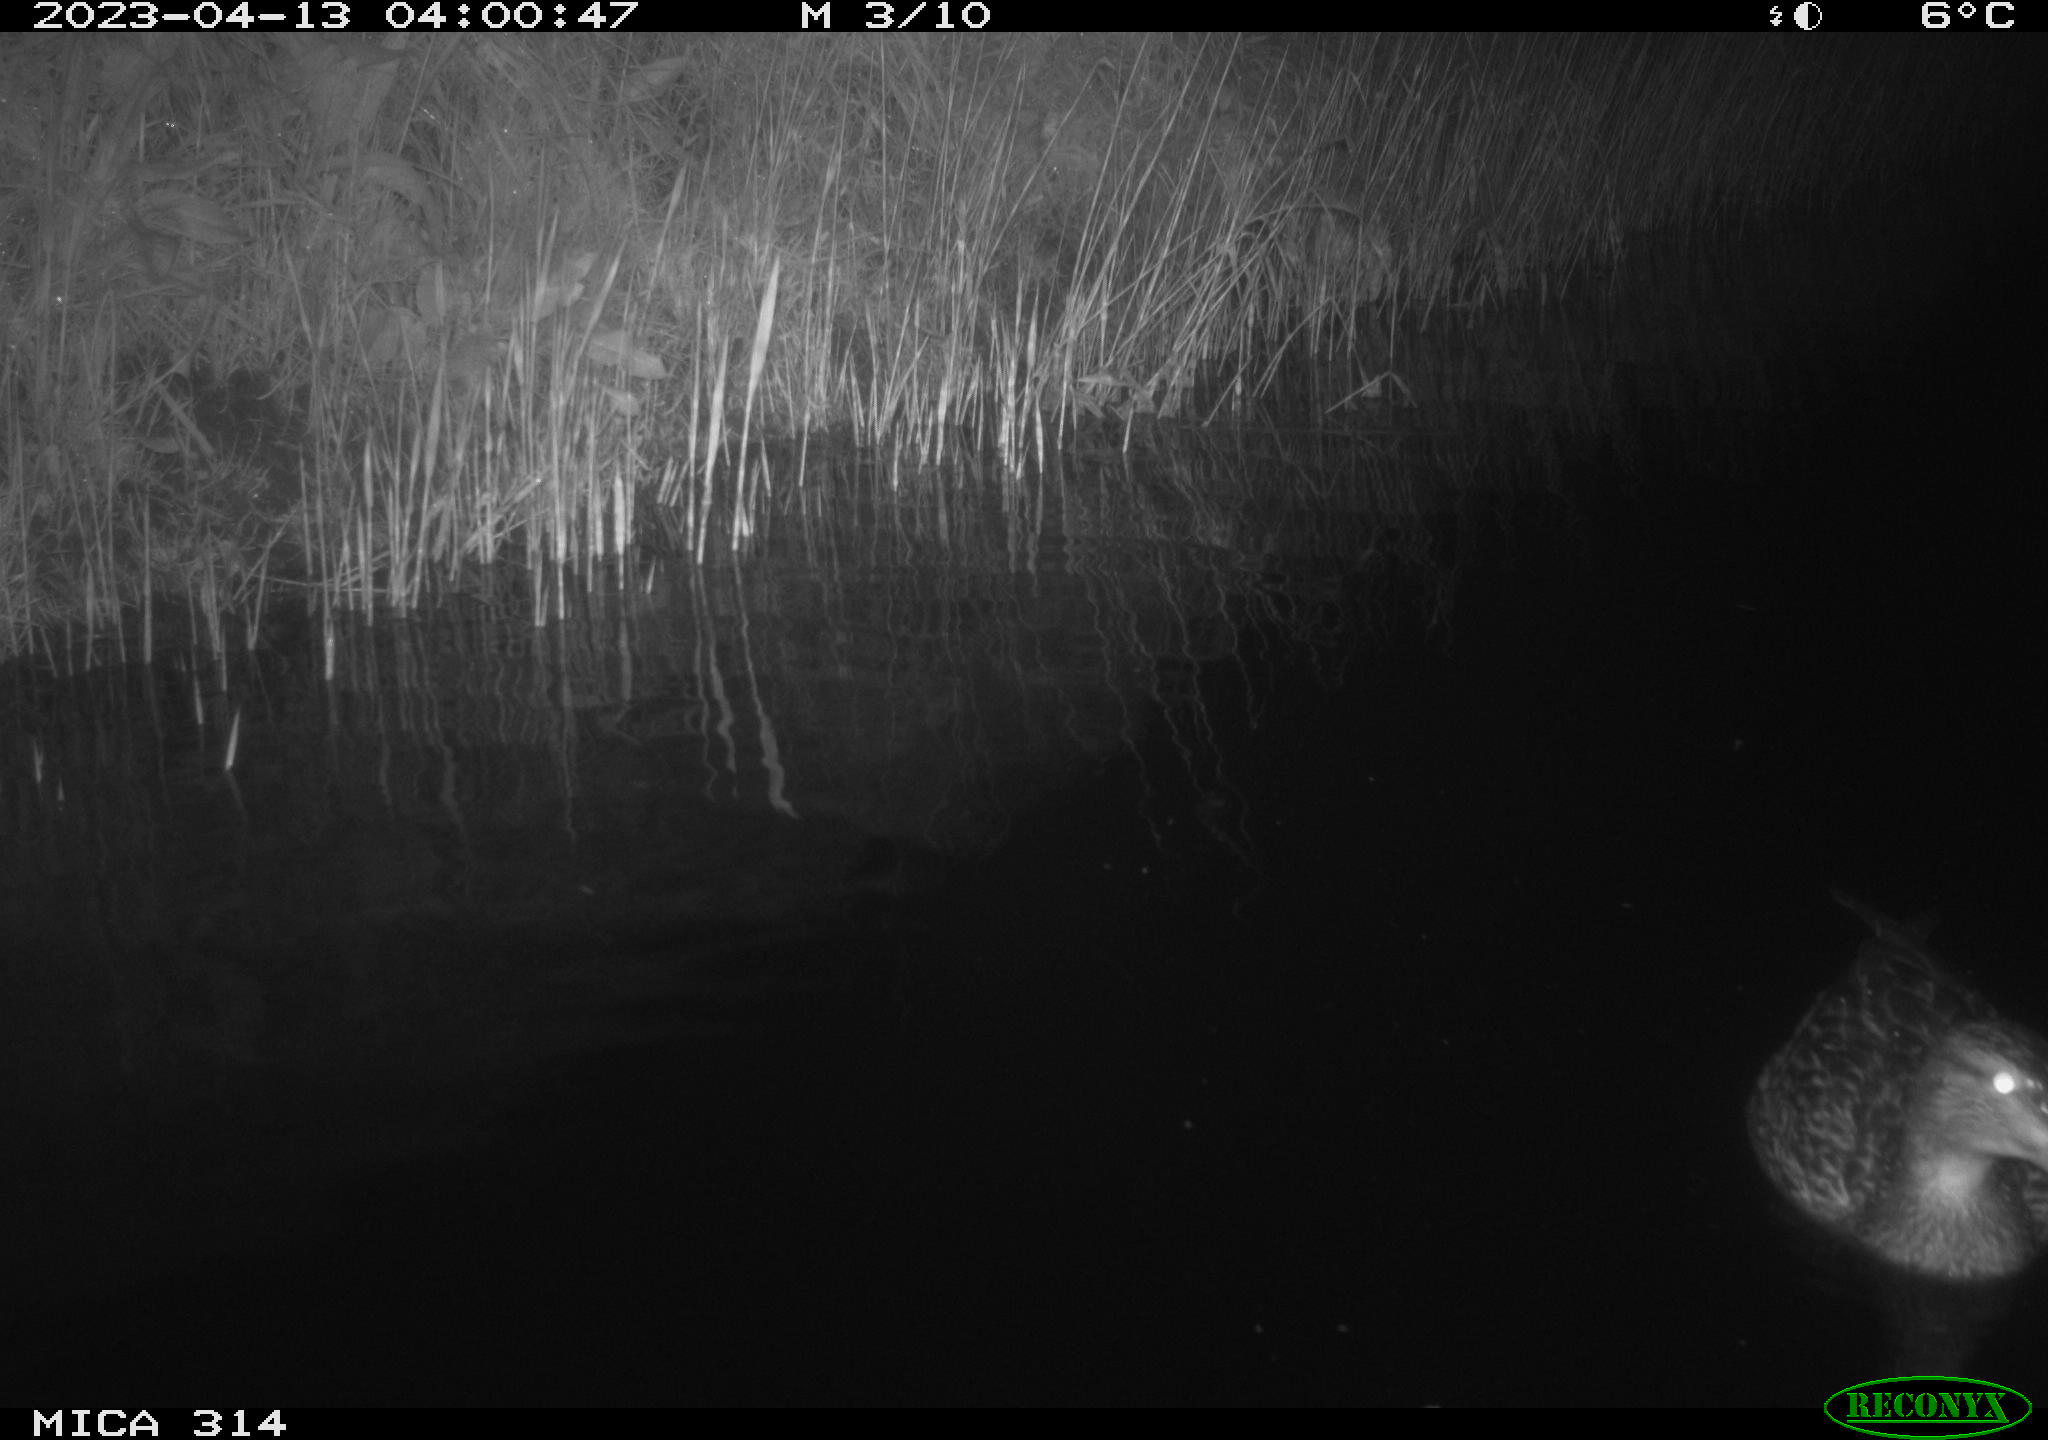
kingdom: Animalia
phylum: Chordata
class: Aves
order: Anseriformes
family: Anatidae
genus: Anas
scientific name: Anas
